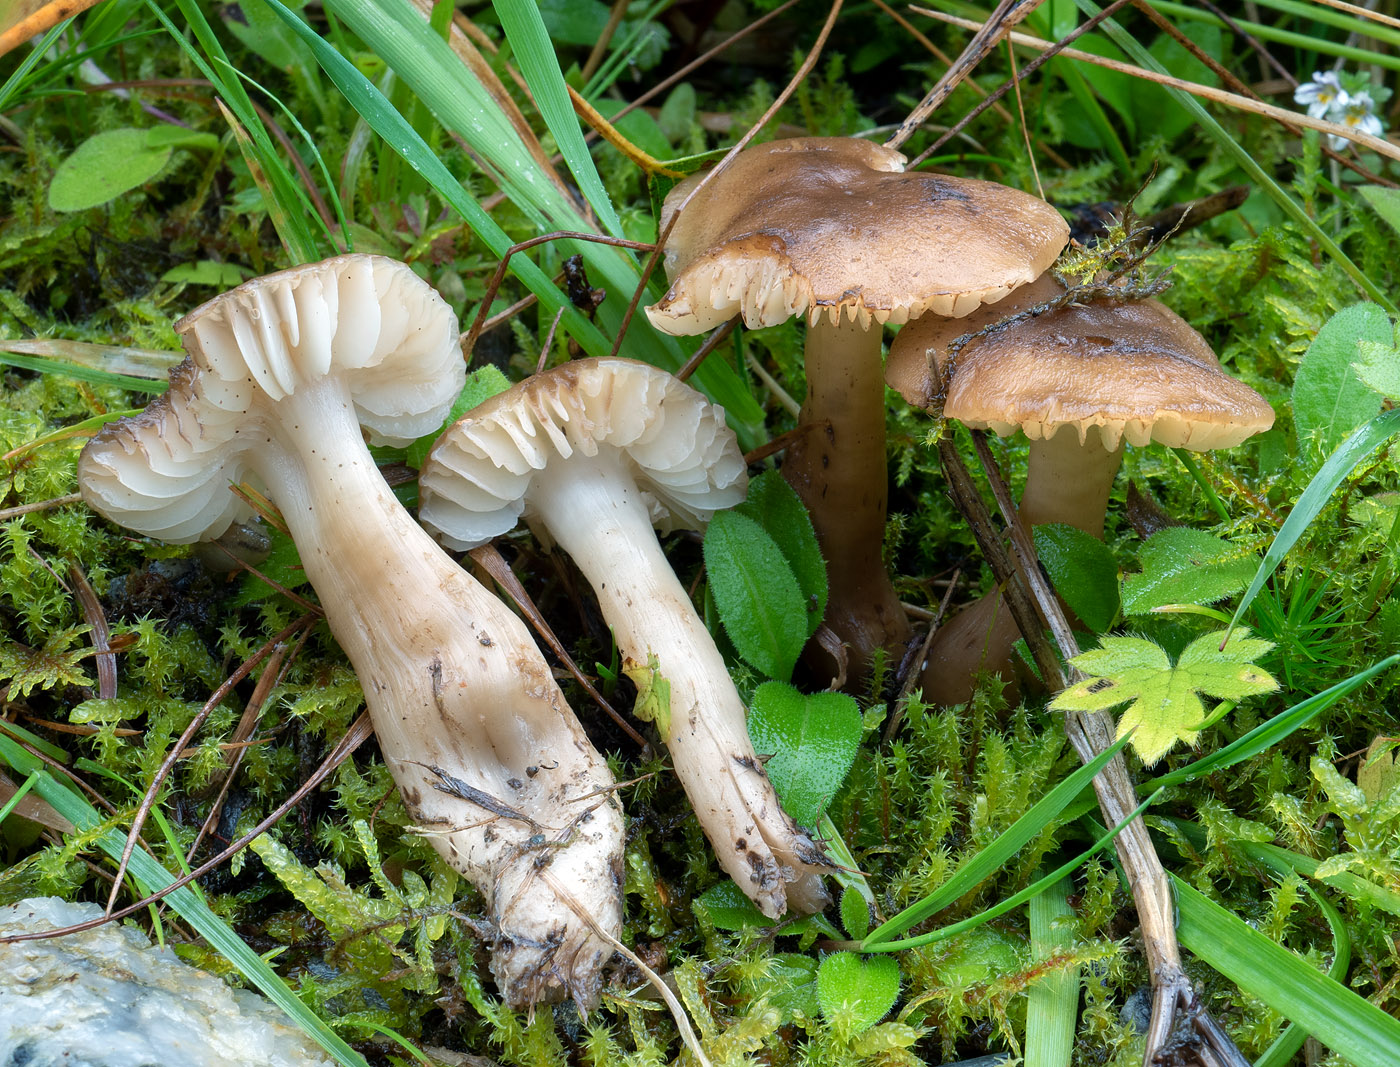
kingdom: Fungi
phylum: Basidiomycota
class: Agaricomycetes
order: Agaricales
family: Hygrophoraceae
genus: Hygrocybe
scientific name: Hygrocybe ingrata
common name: Jensens vokshat
